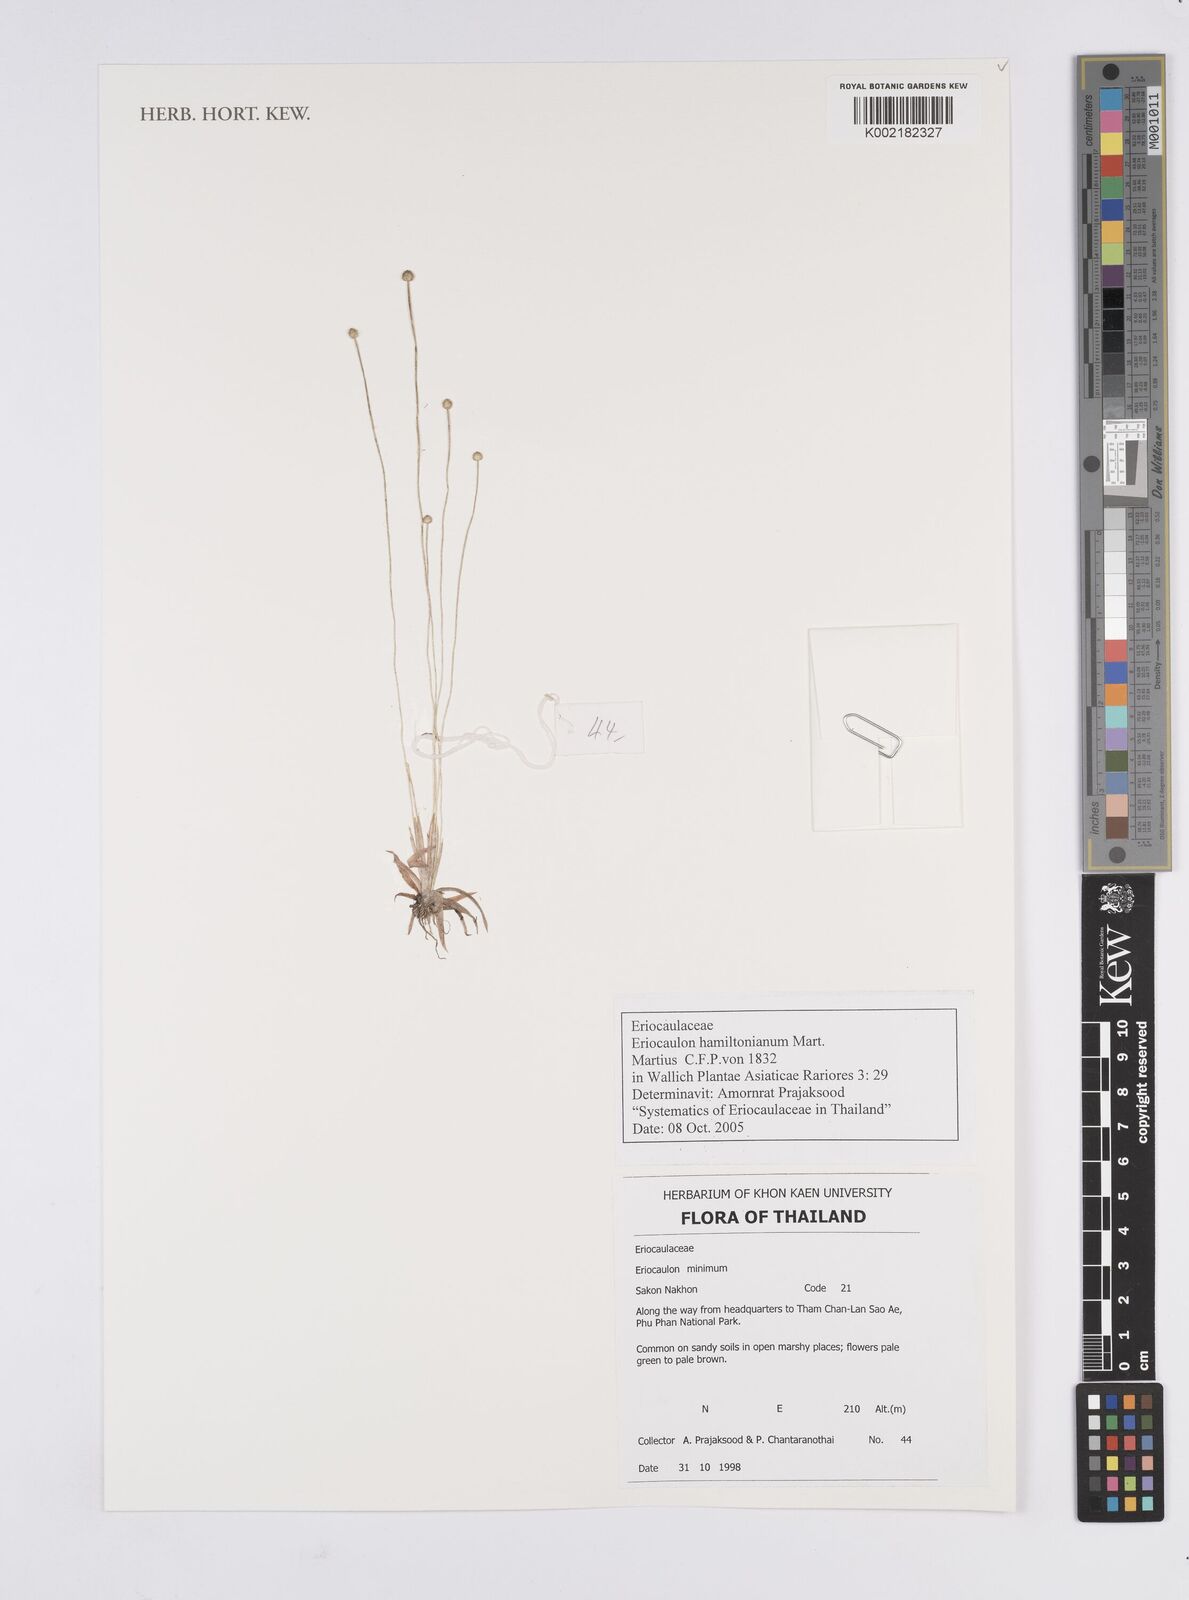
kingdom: Plantae
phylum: Tracheophyta
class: Liliopsida
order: Poales
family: Eriocaulaceae
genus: Eriocaulon
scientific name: Eriocaulon hamiltonianum
